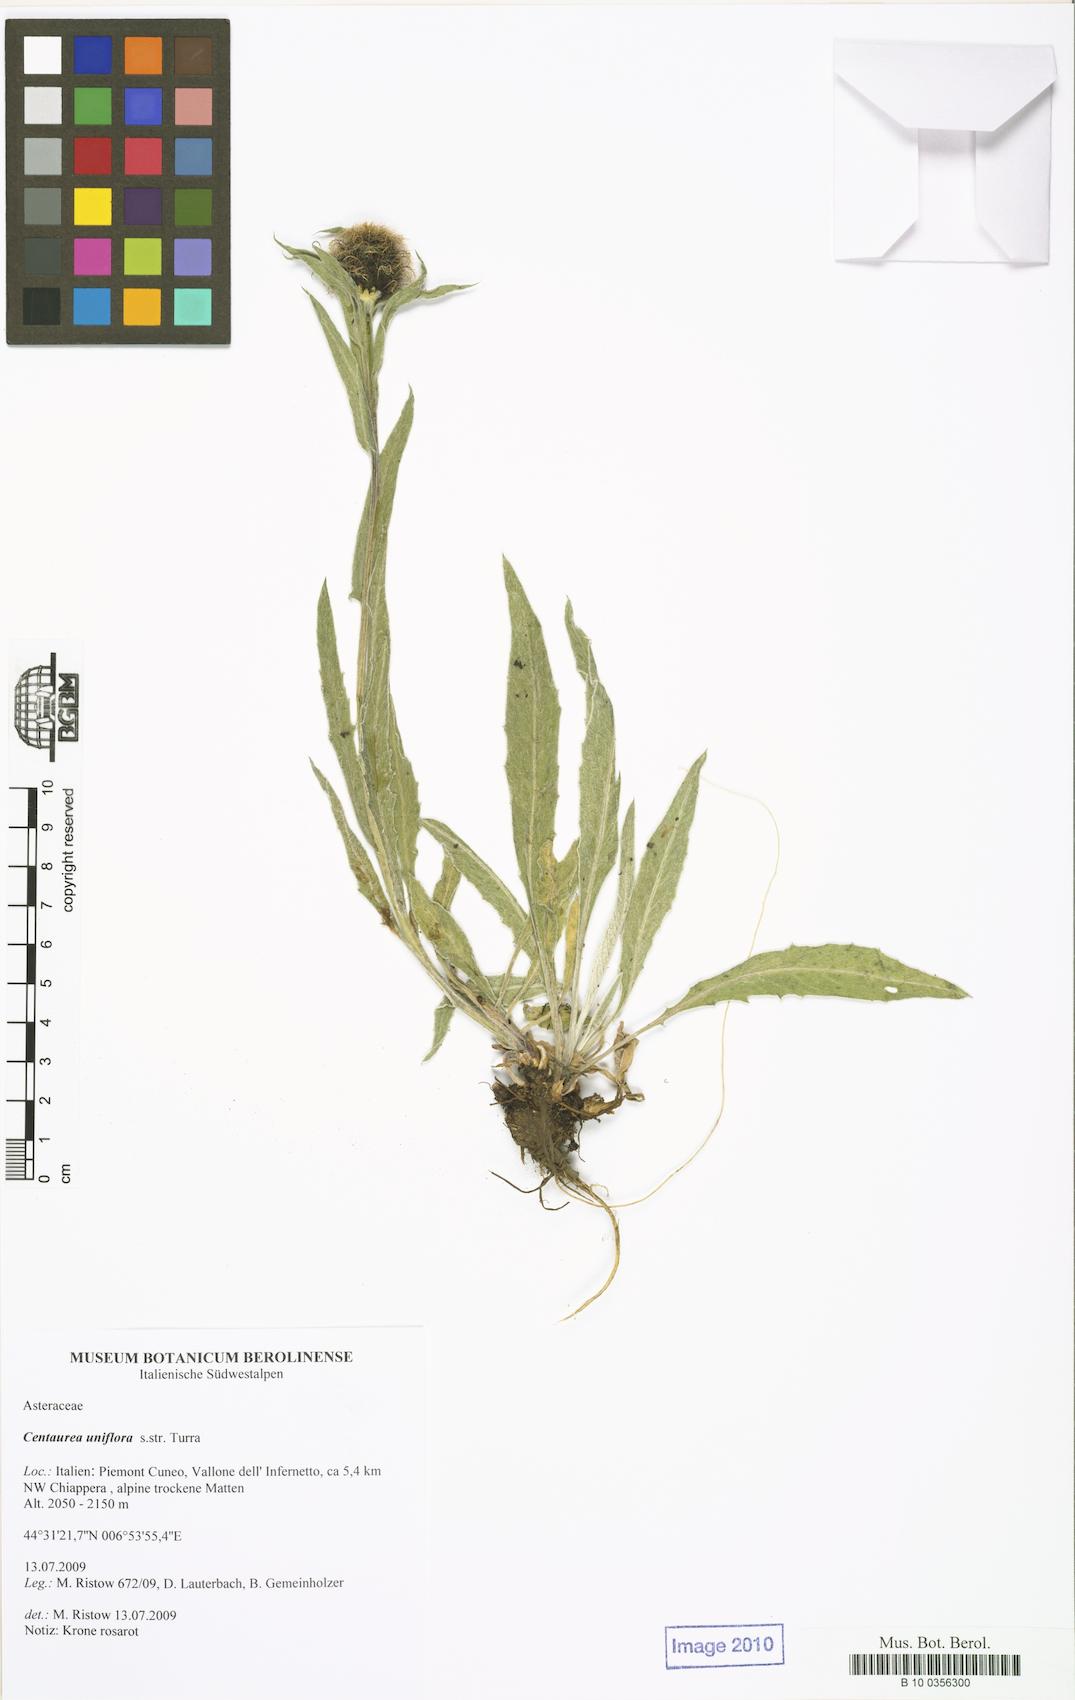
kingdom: Plantae
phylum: Tracheophyta
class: Magnoliopsida
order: Asterales
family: Asteraceae
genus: Centaurea
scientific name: Centaurea
